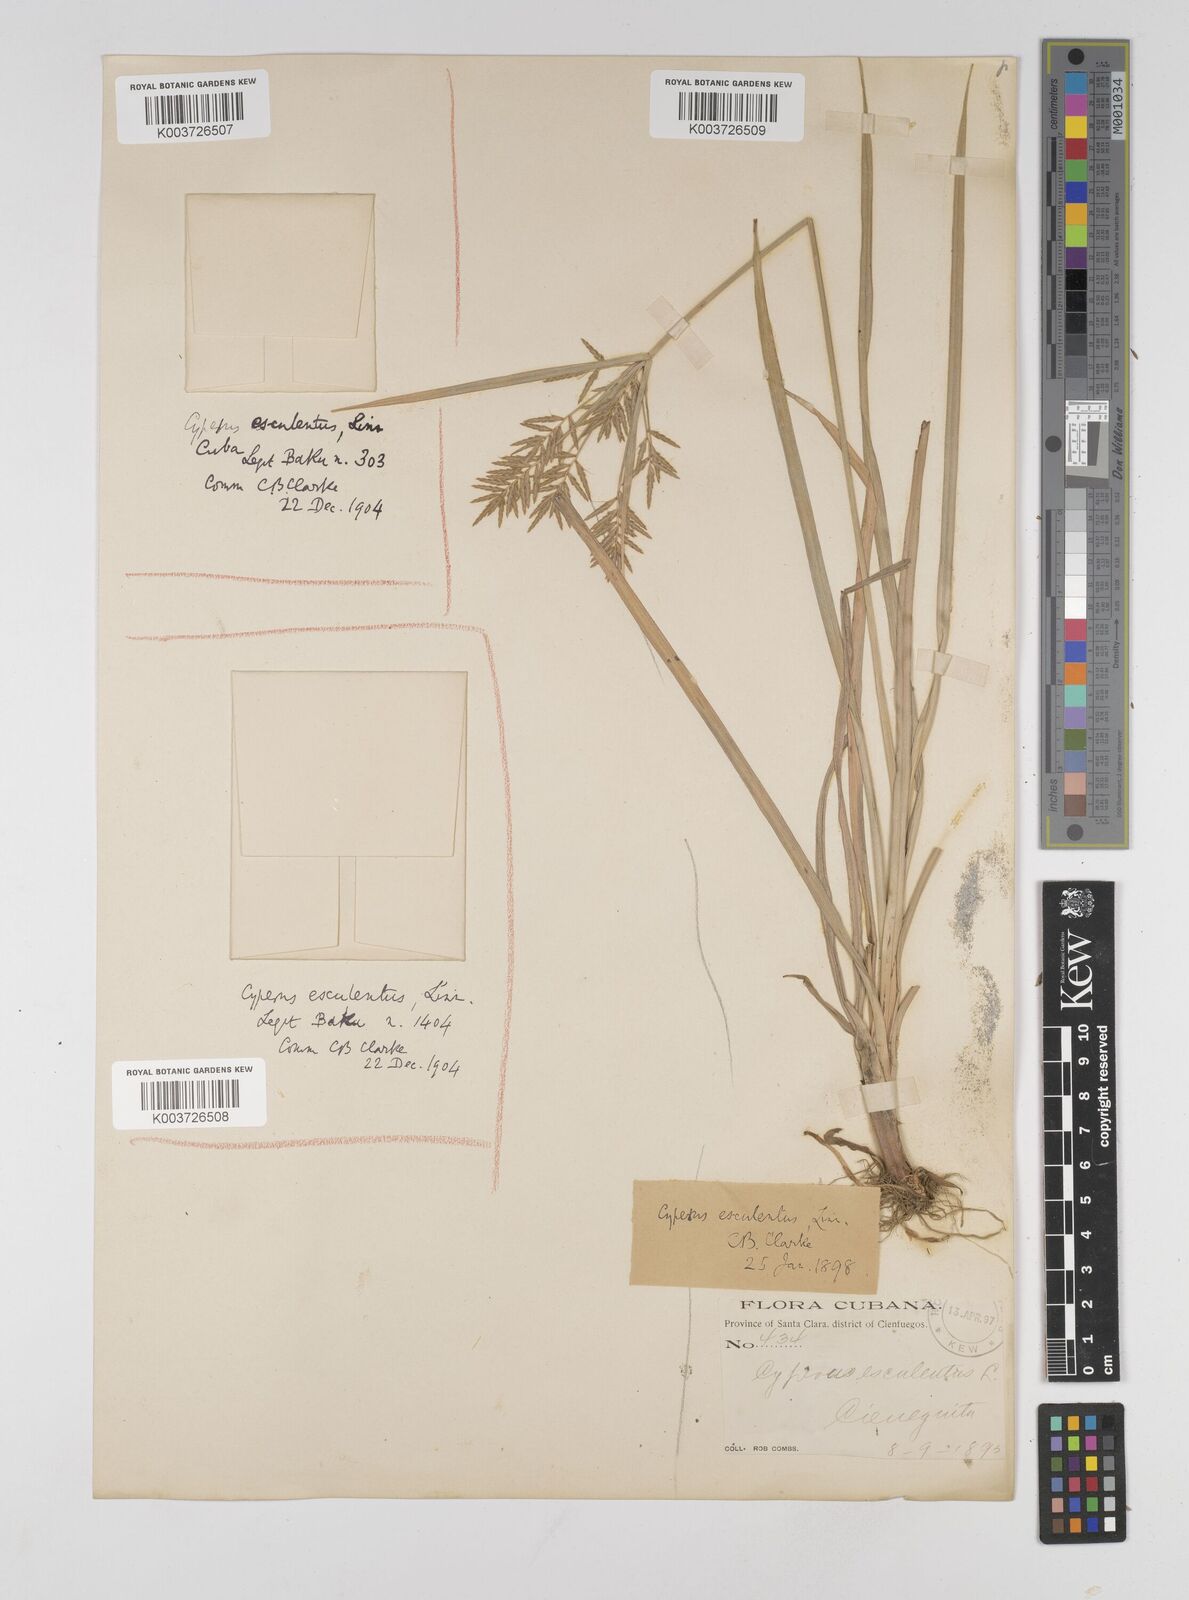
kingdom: Plantae
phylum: Tracheophyta
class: Liliopsida
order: Poales
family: Cyperaceae
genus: Cyperus
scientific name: Cyperus esculentus
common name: Yellow nutsedge
